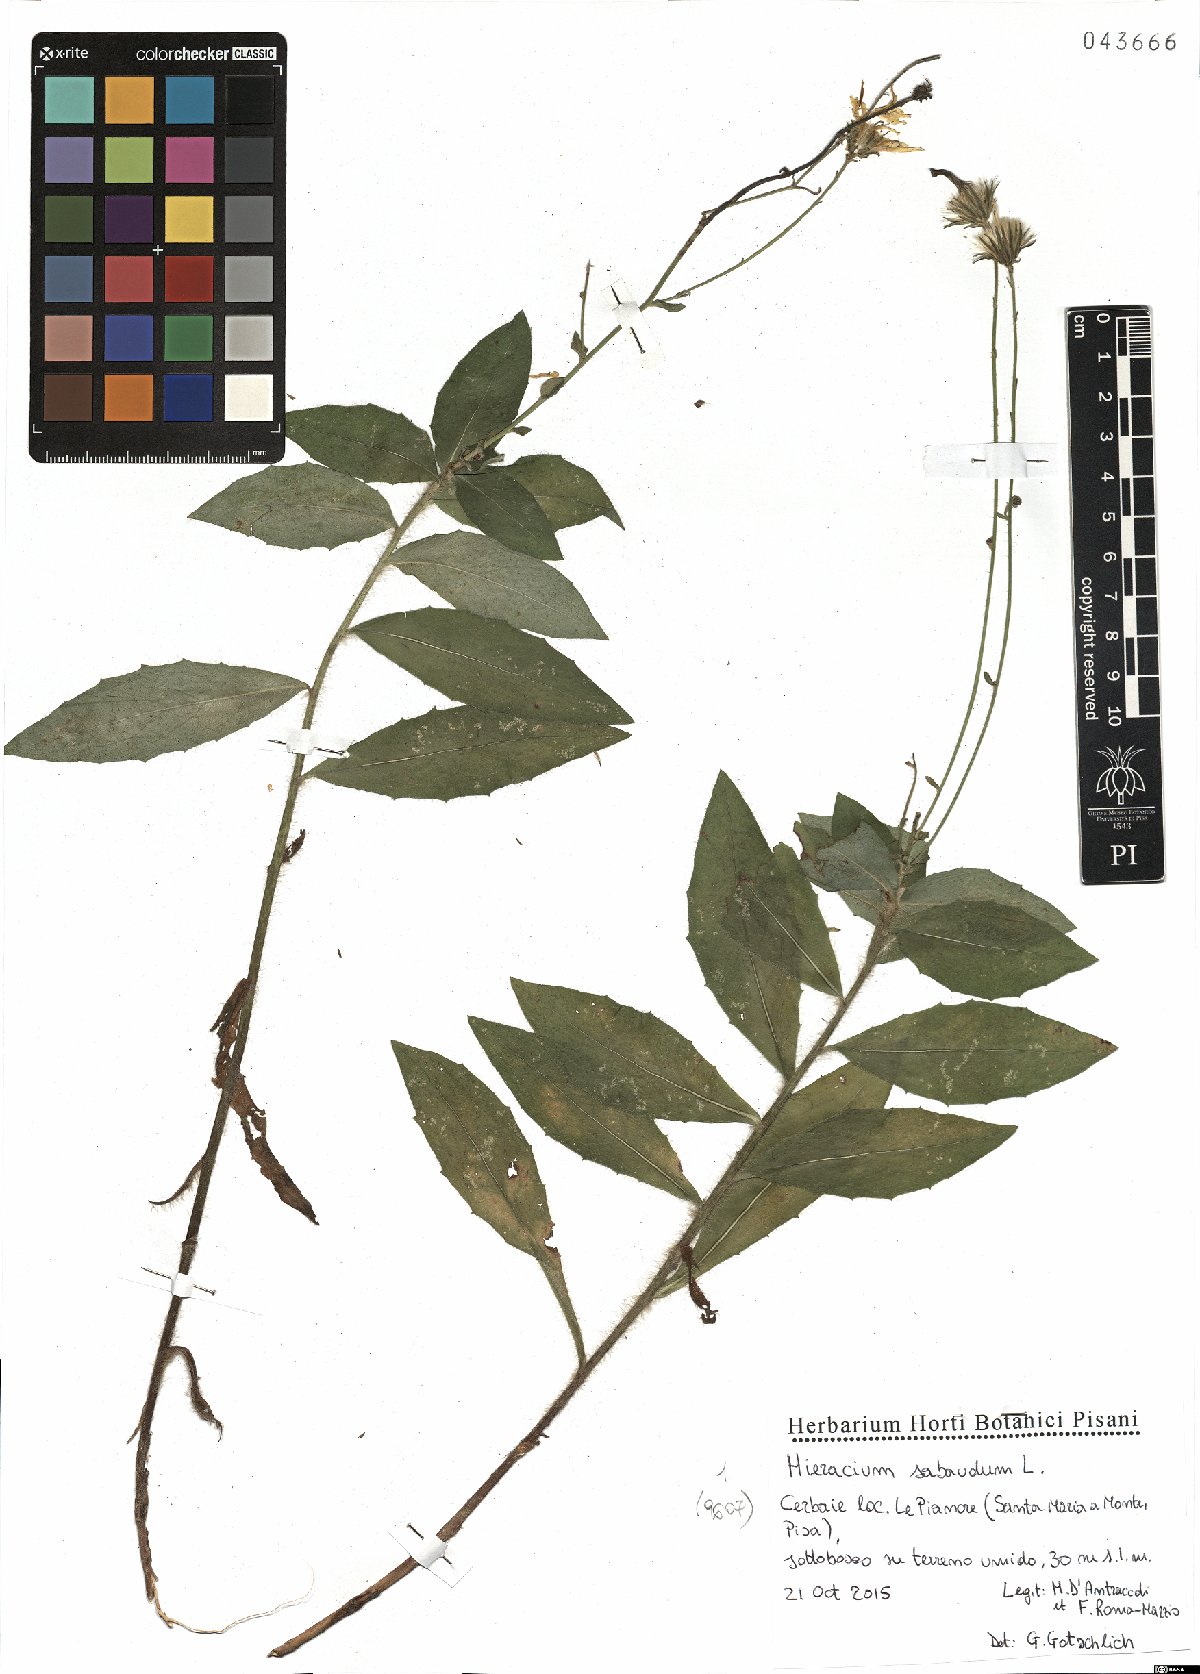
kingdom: Plantae
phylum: Tracheophyta
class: Magnoliopsida
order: Asterales
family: Asteraceae
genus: Hieracium
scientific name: Hieracium sabaudum
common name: New england hawkweed
